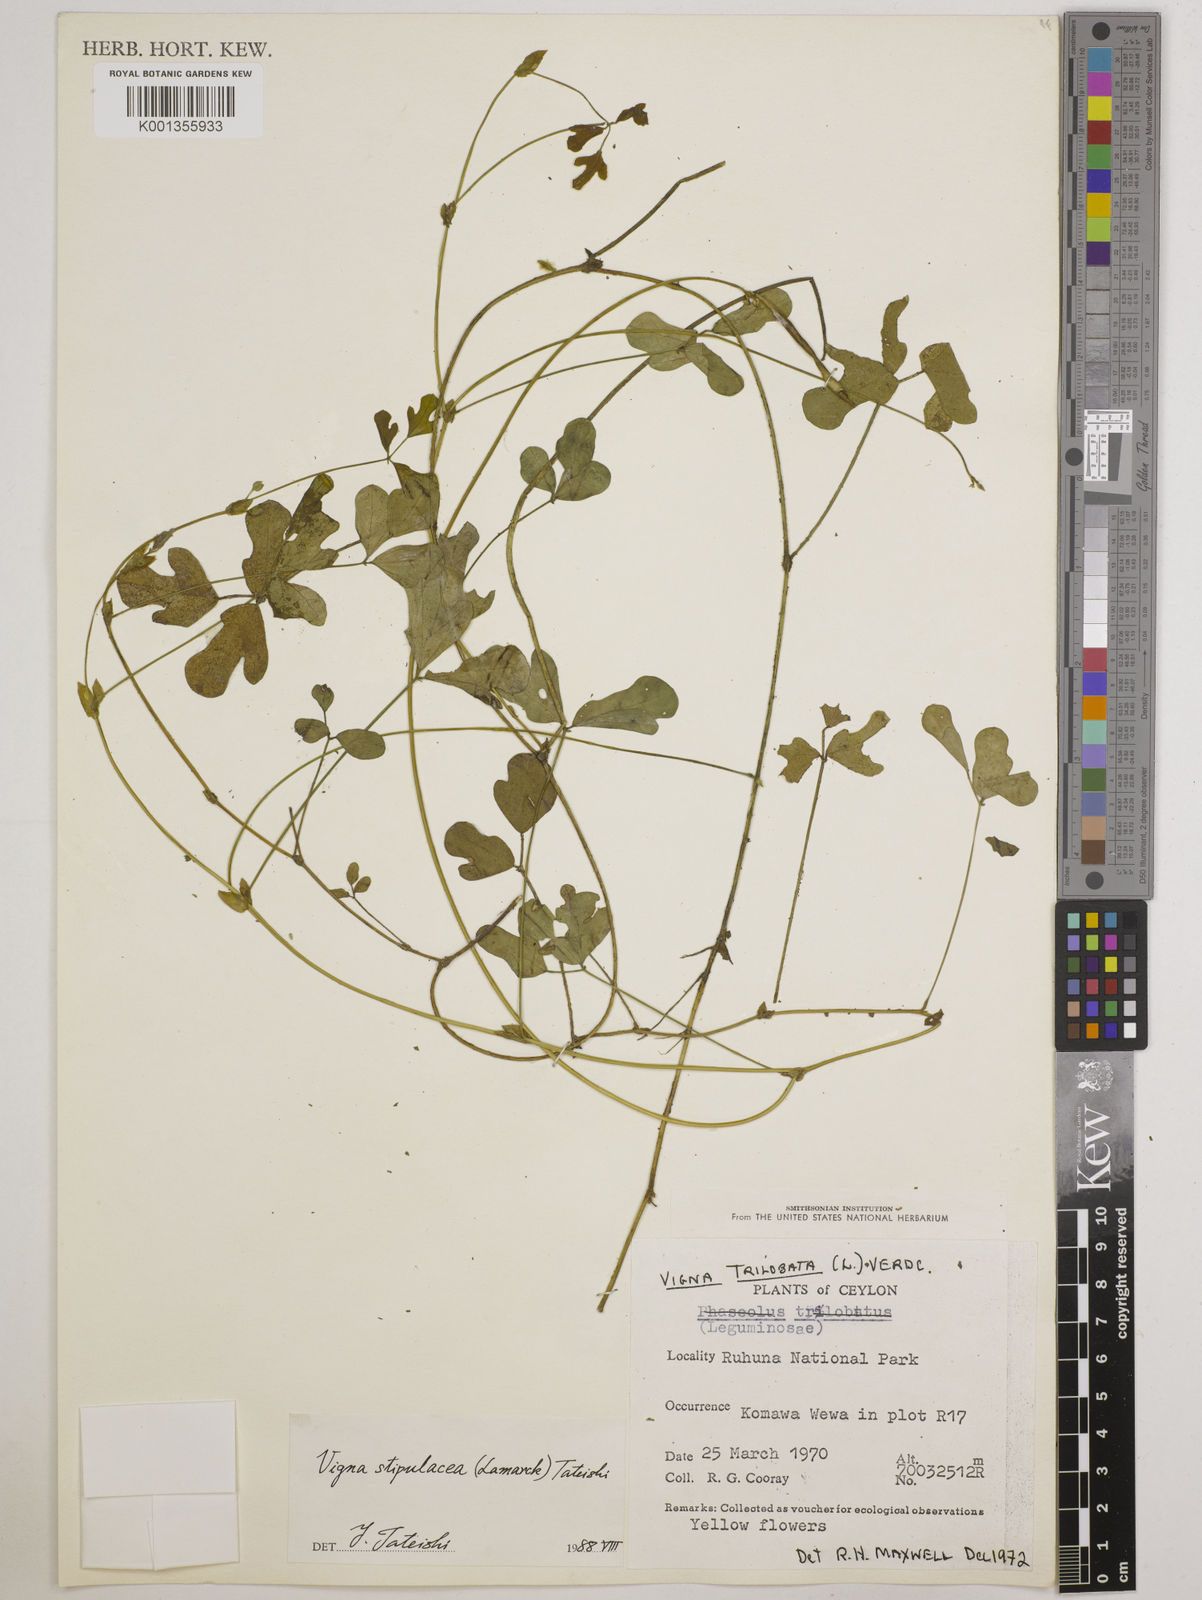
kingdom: Plantae
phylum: Tracheophyta
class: Magnoliopsida
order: Fabales
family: Fabaceae
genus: Pueraria
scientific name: Pueraria montana
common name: Kudzu
